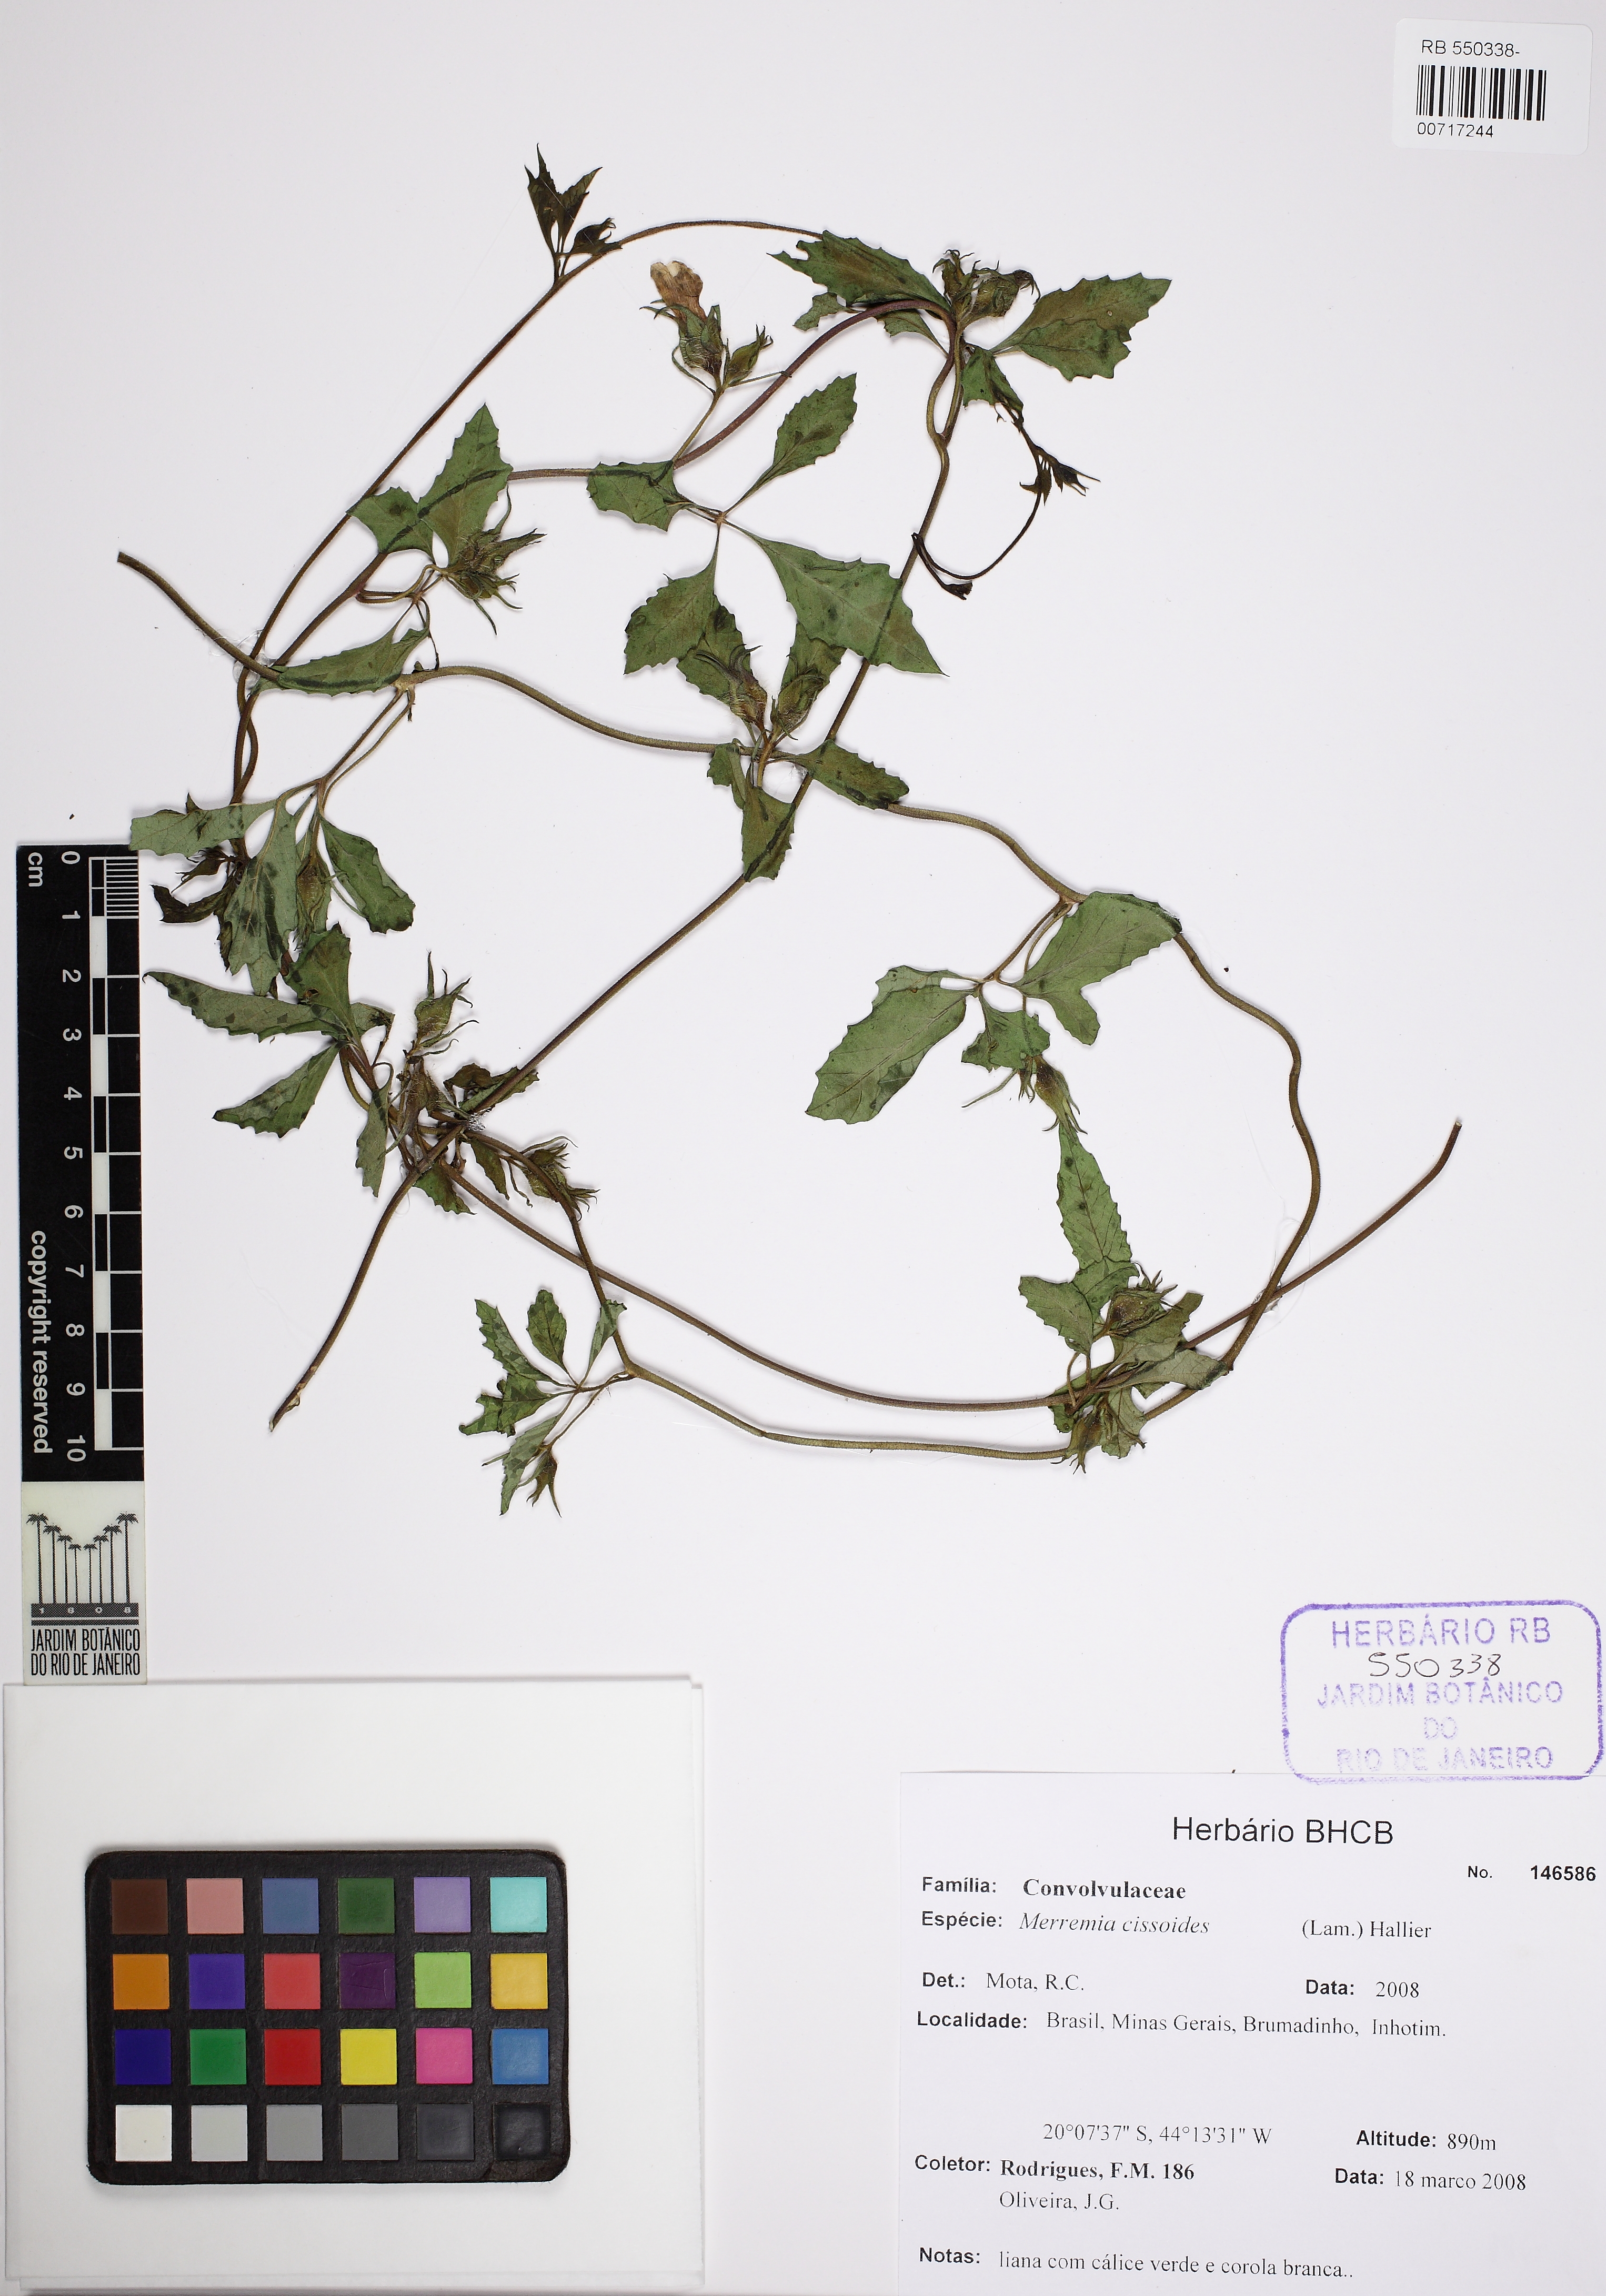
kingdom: Plantae
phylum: Tracheophyta
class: Magnoliopsida
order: Solanales
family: Convolvulaceae
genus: Distimake
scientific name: Distimake cissoides
